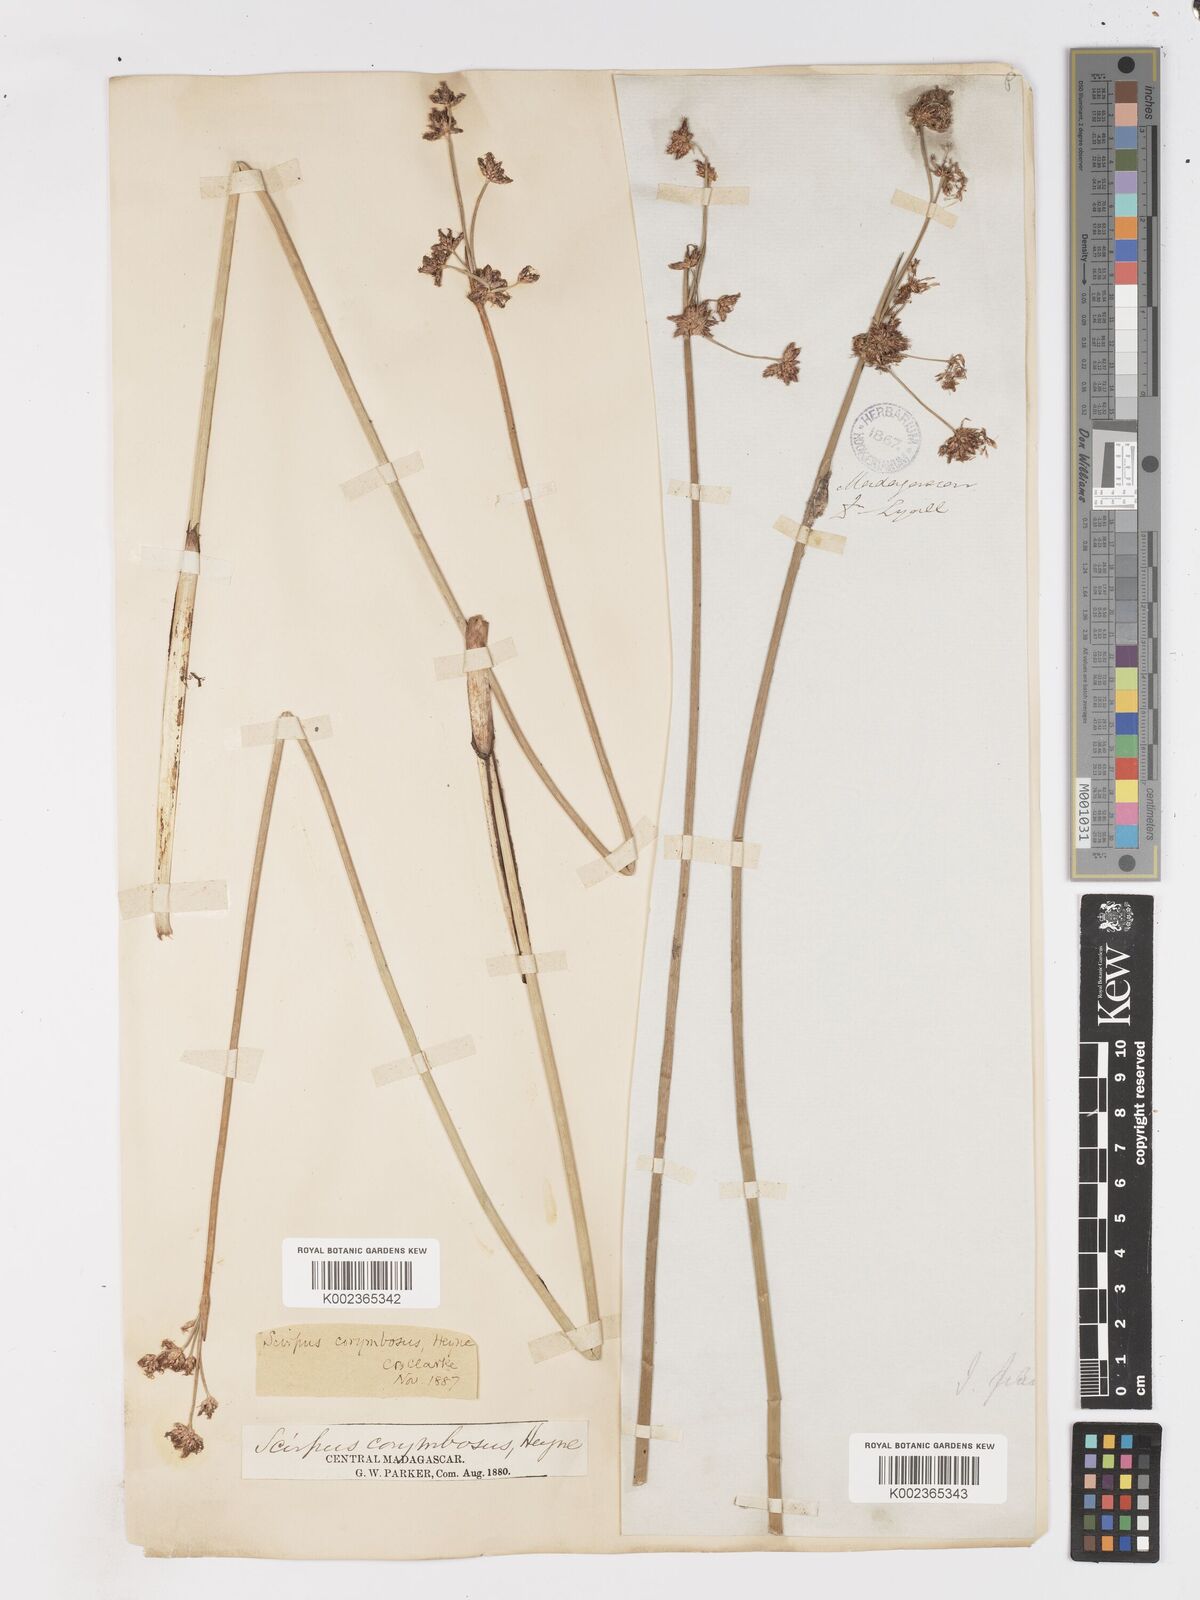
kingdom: Plantae
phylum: Tracheophyta
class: Liliopsida
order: Poales
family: Cyperaceae
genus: Schoenoplectiella
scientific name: Schoenoplectiella corymbosa
